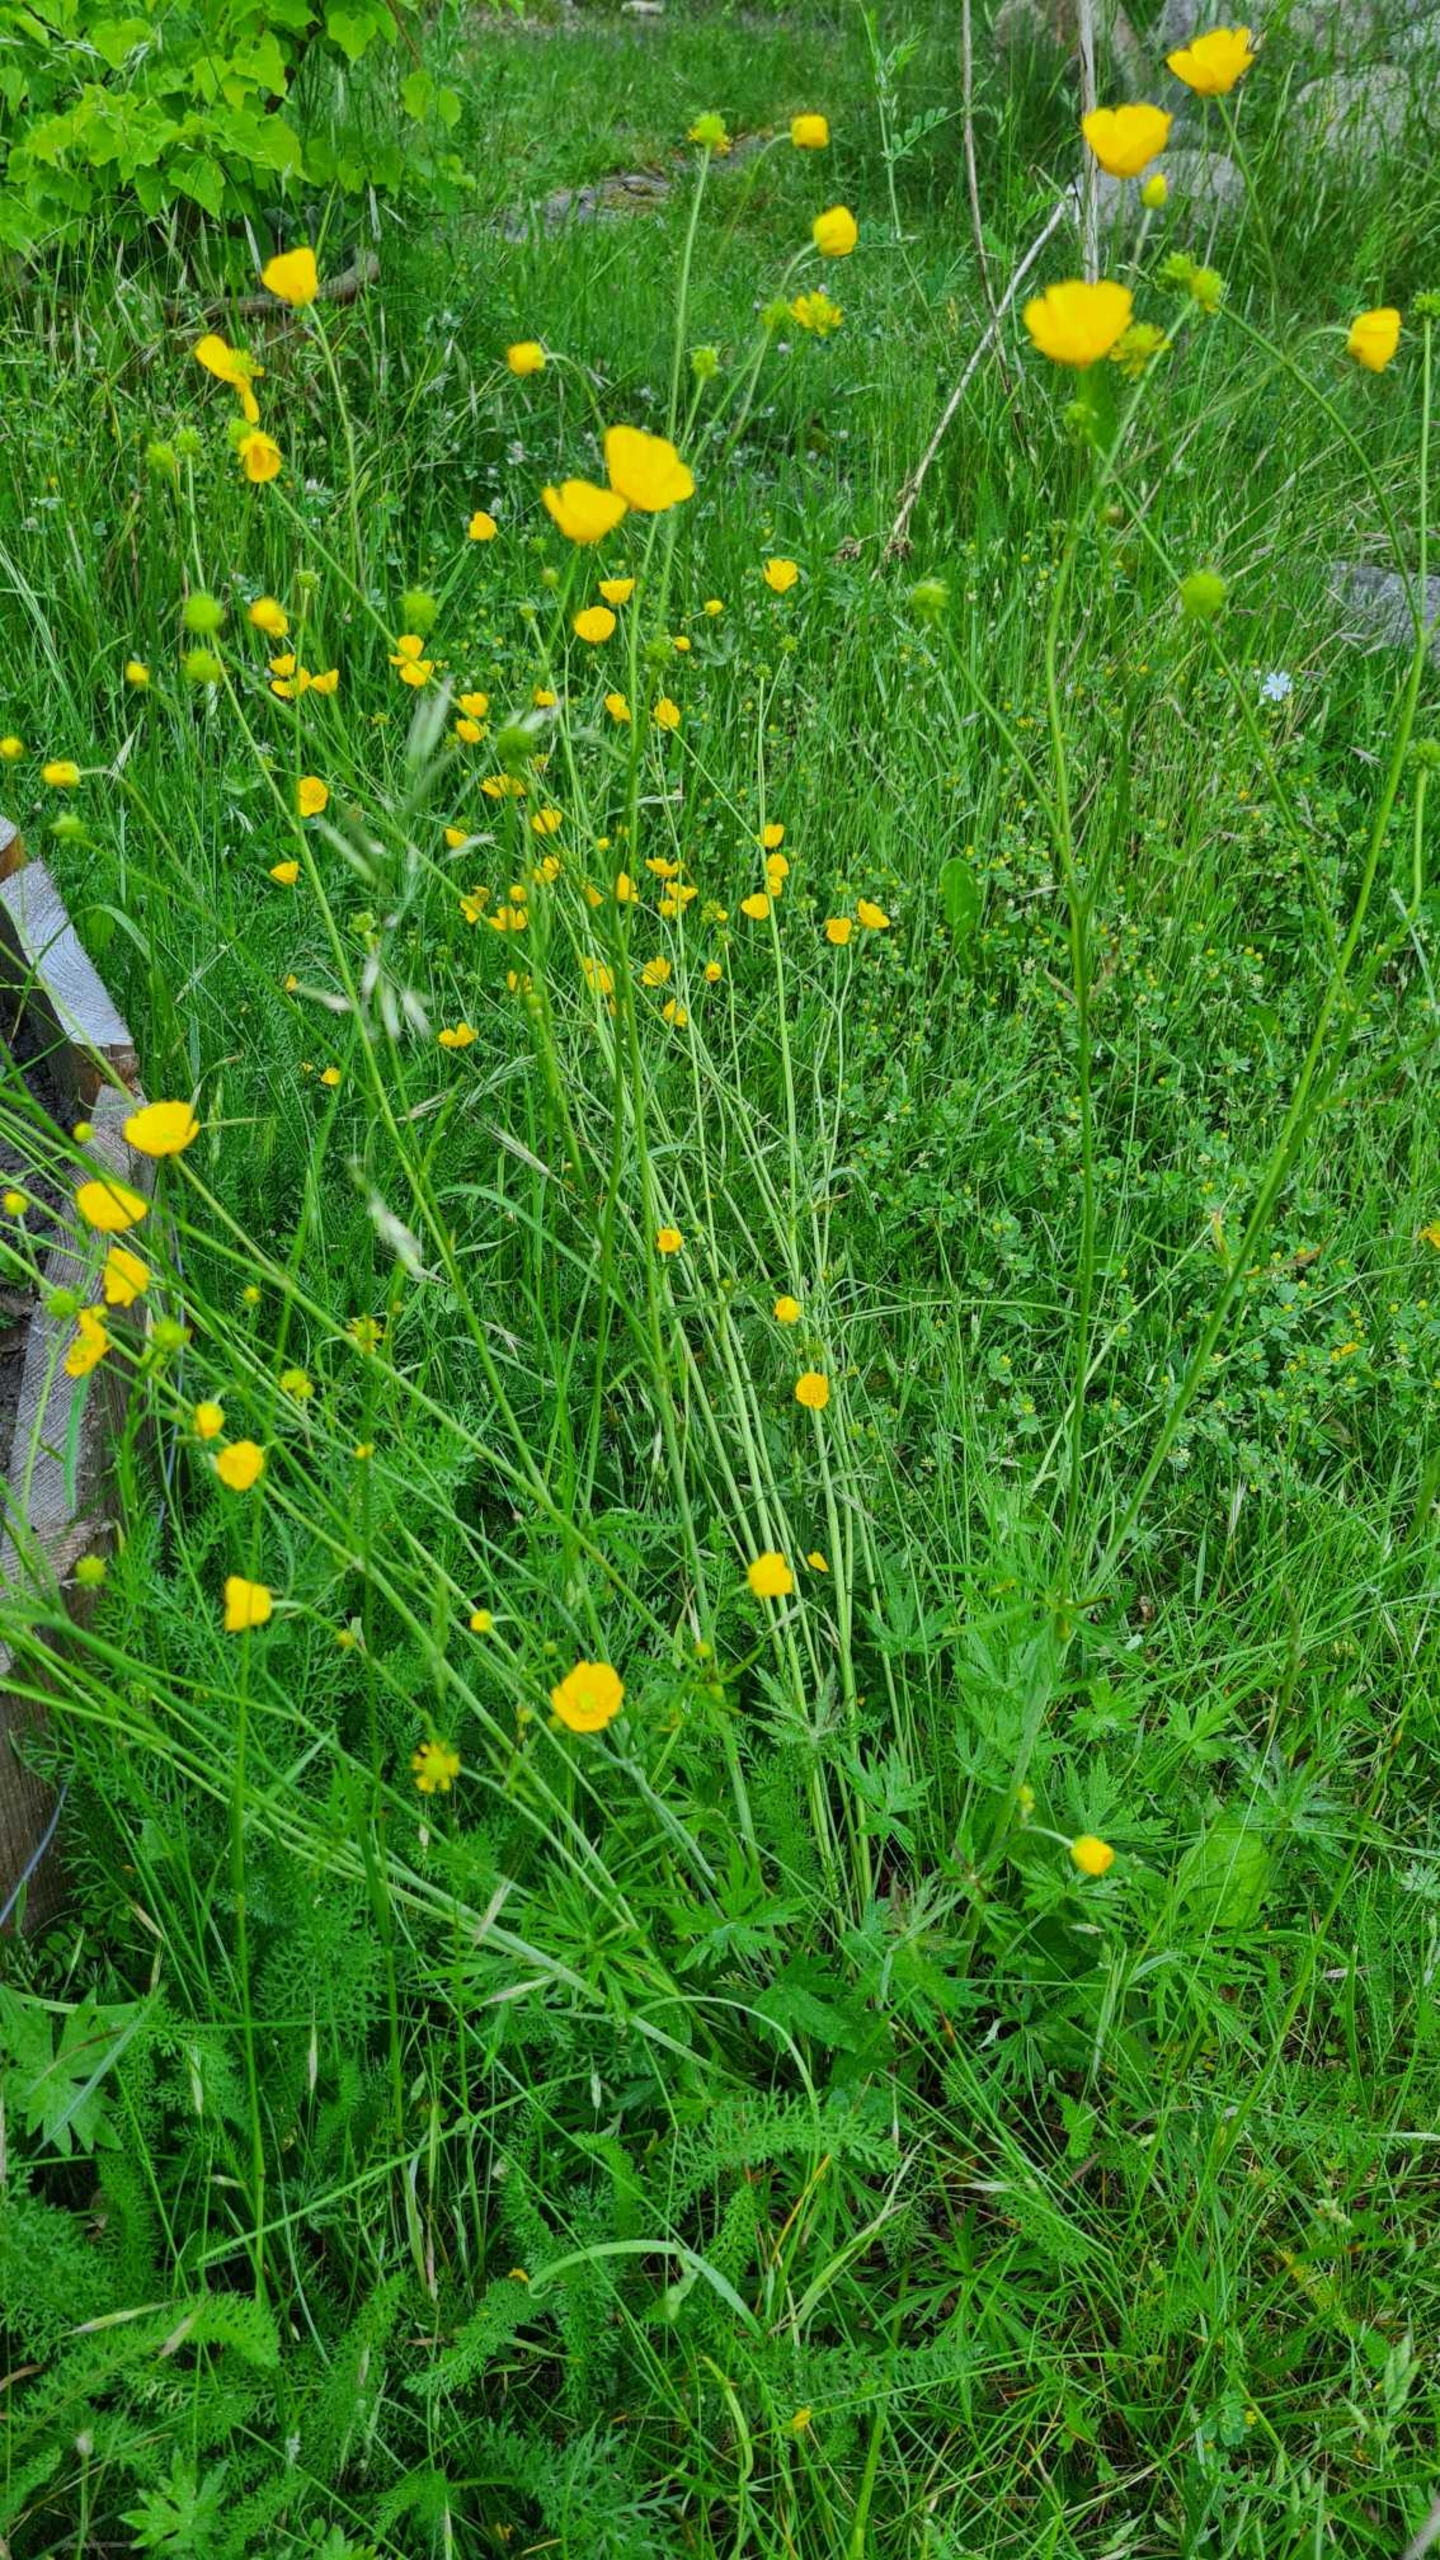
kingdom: Plantae
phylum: Tracheophyta
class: Magnoliopsida
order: Ranunculales
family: Ranunculaceae
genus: Ranunculus
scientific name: Ranunculus acris
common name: Bidende ranunkel
